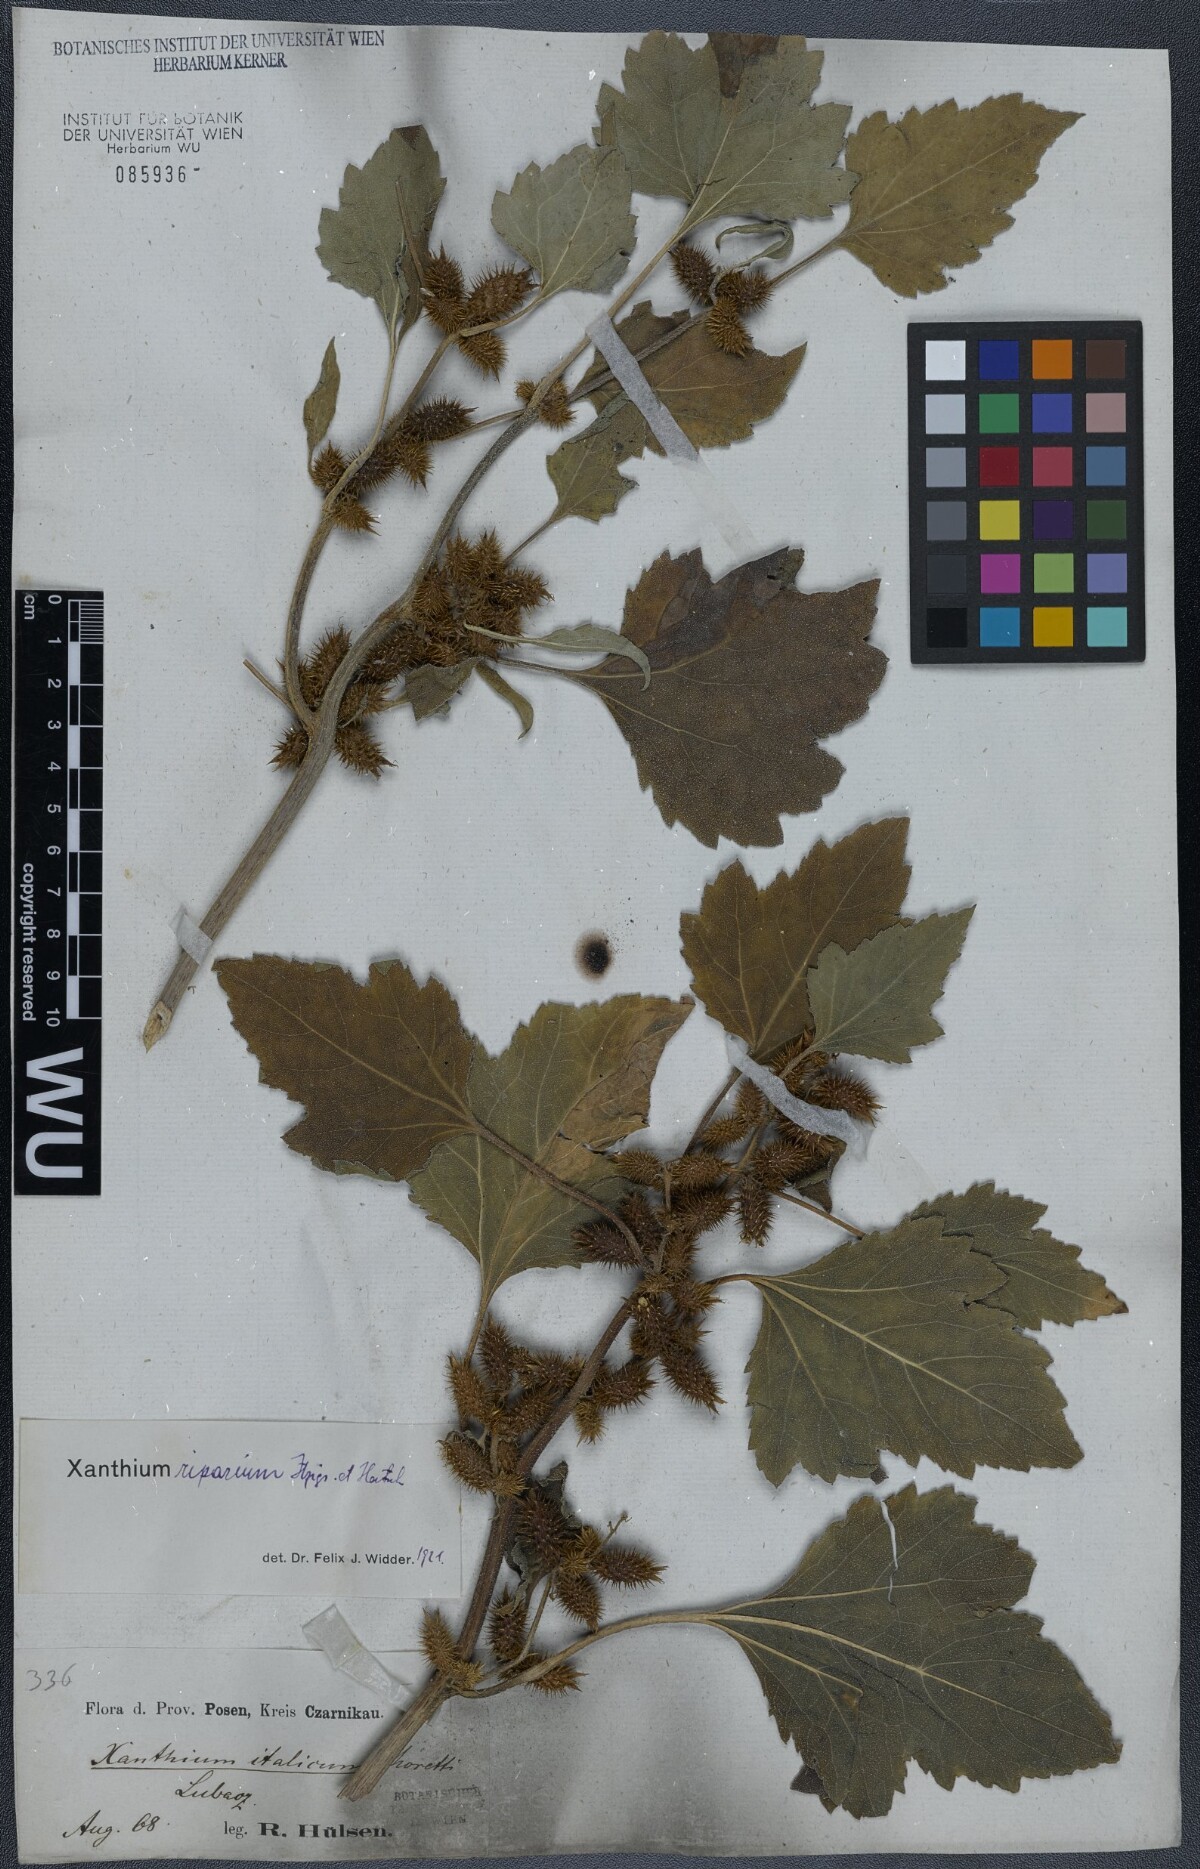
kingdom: Plantae
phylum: Tracheophyta
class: Magnoliopsida
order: Asterales
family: Asteraceae
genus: Xanthium
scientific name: Xanthium orientale
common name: Californian burr
